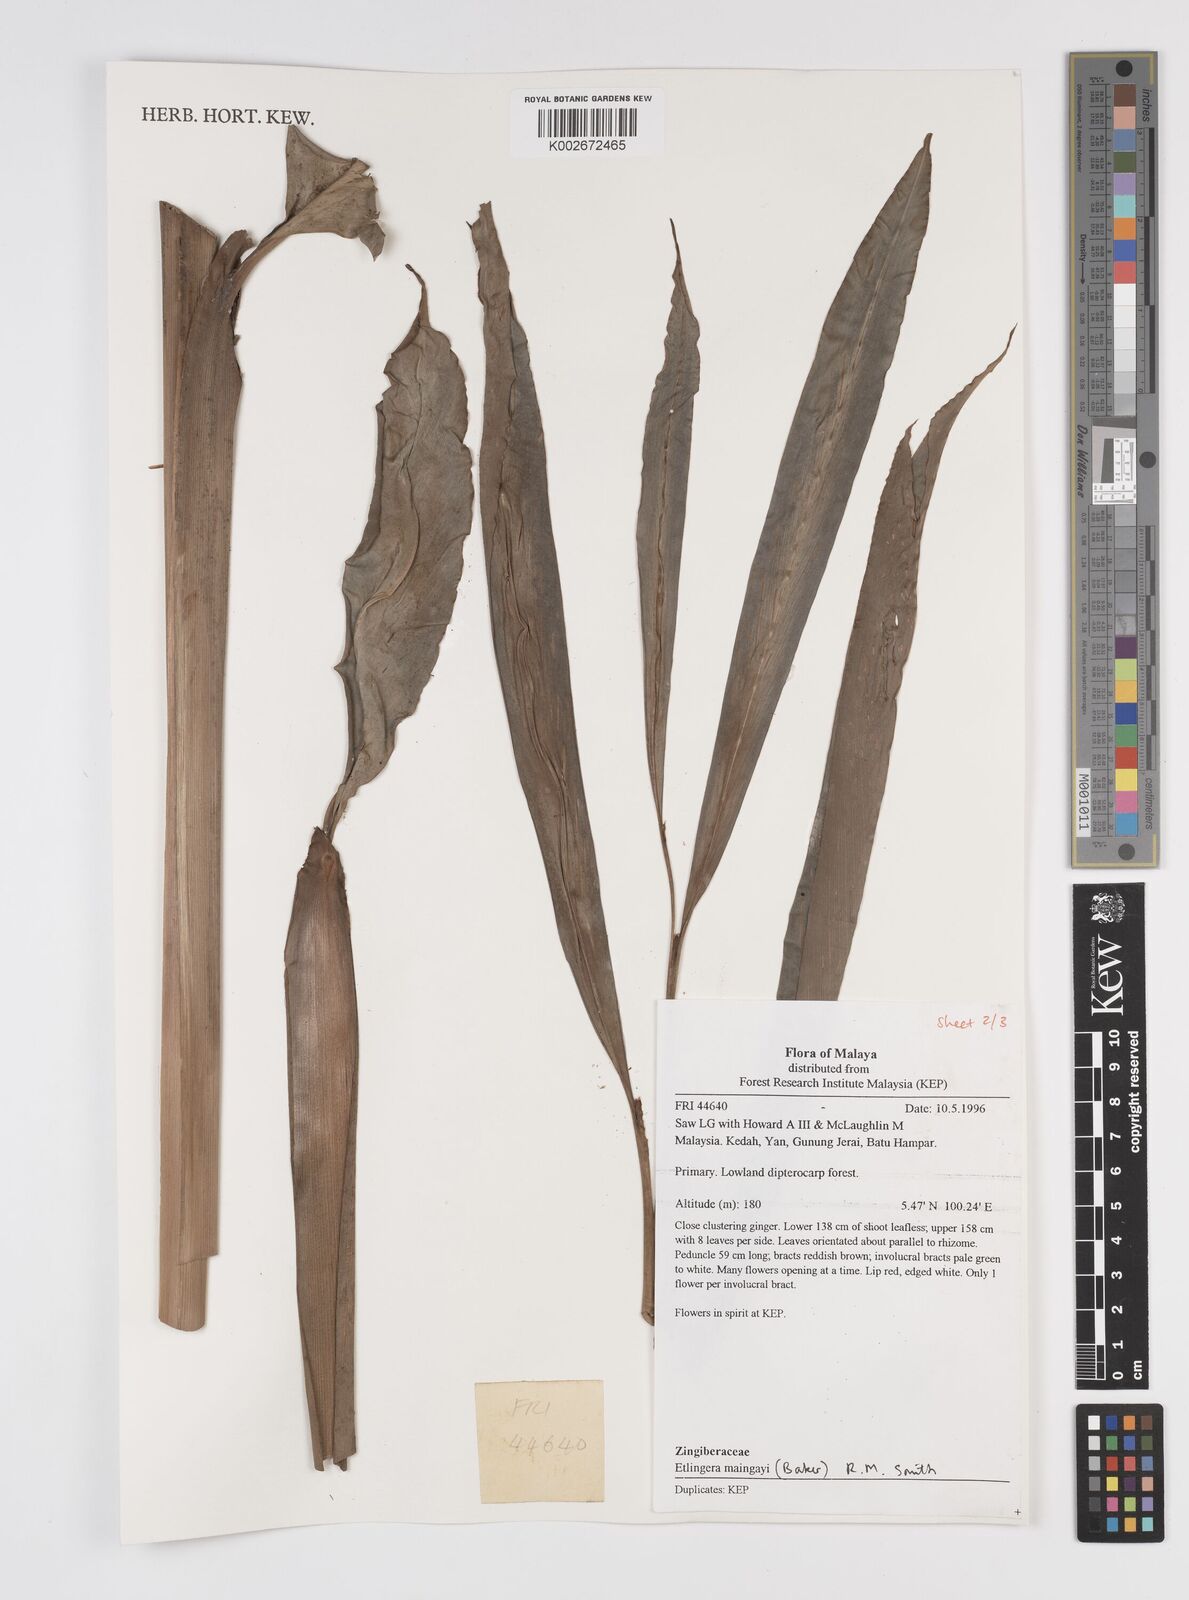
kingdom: Plantae
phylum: Tracheophyta
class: Liliopsida
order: Zingiberales
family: Zingiberaceae
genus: Etlingera
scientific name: Etlingera maingayi
